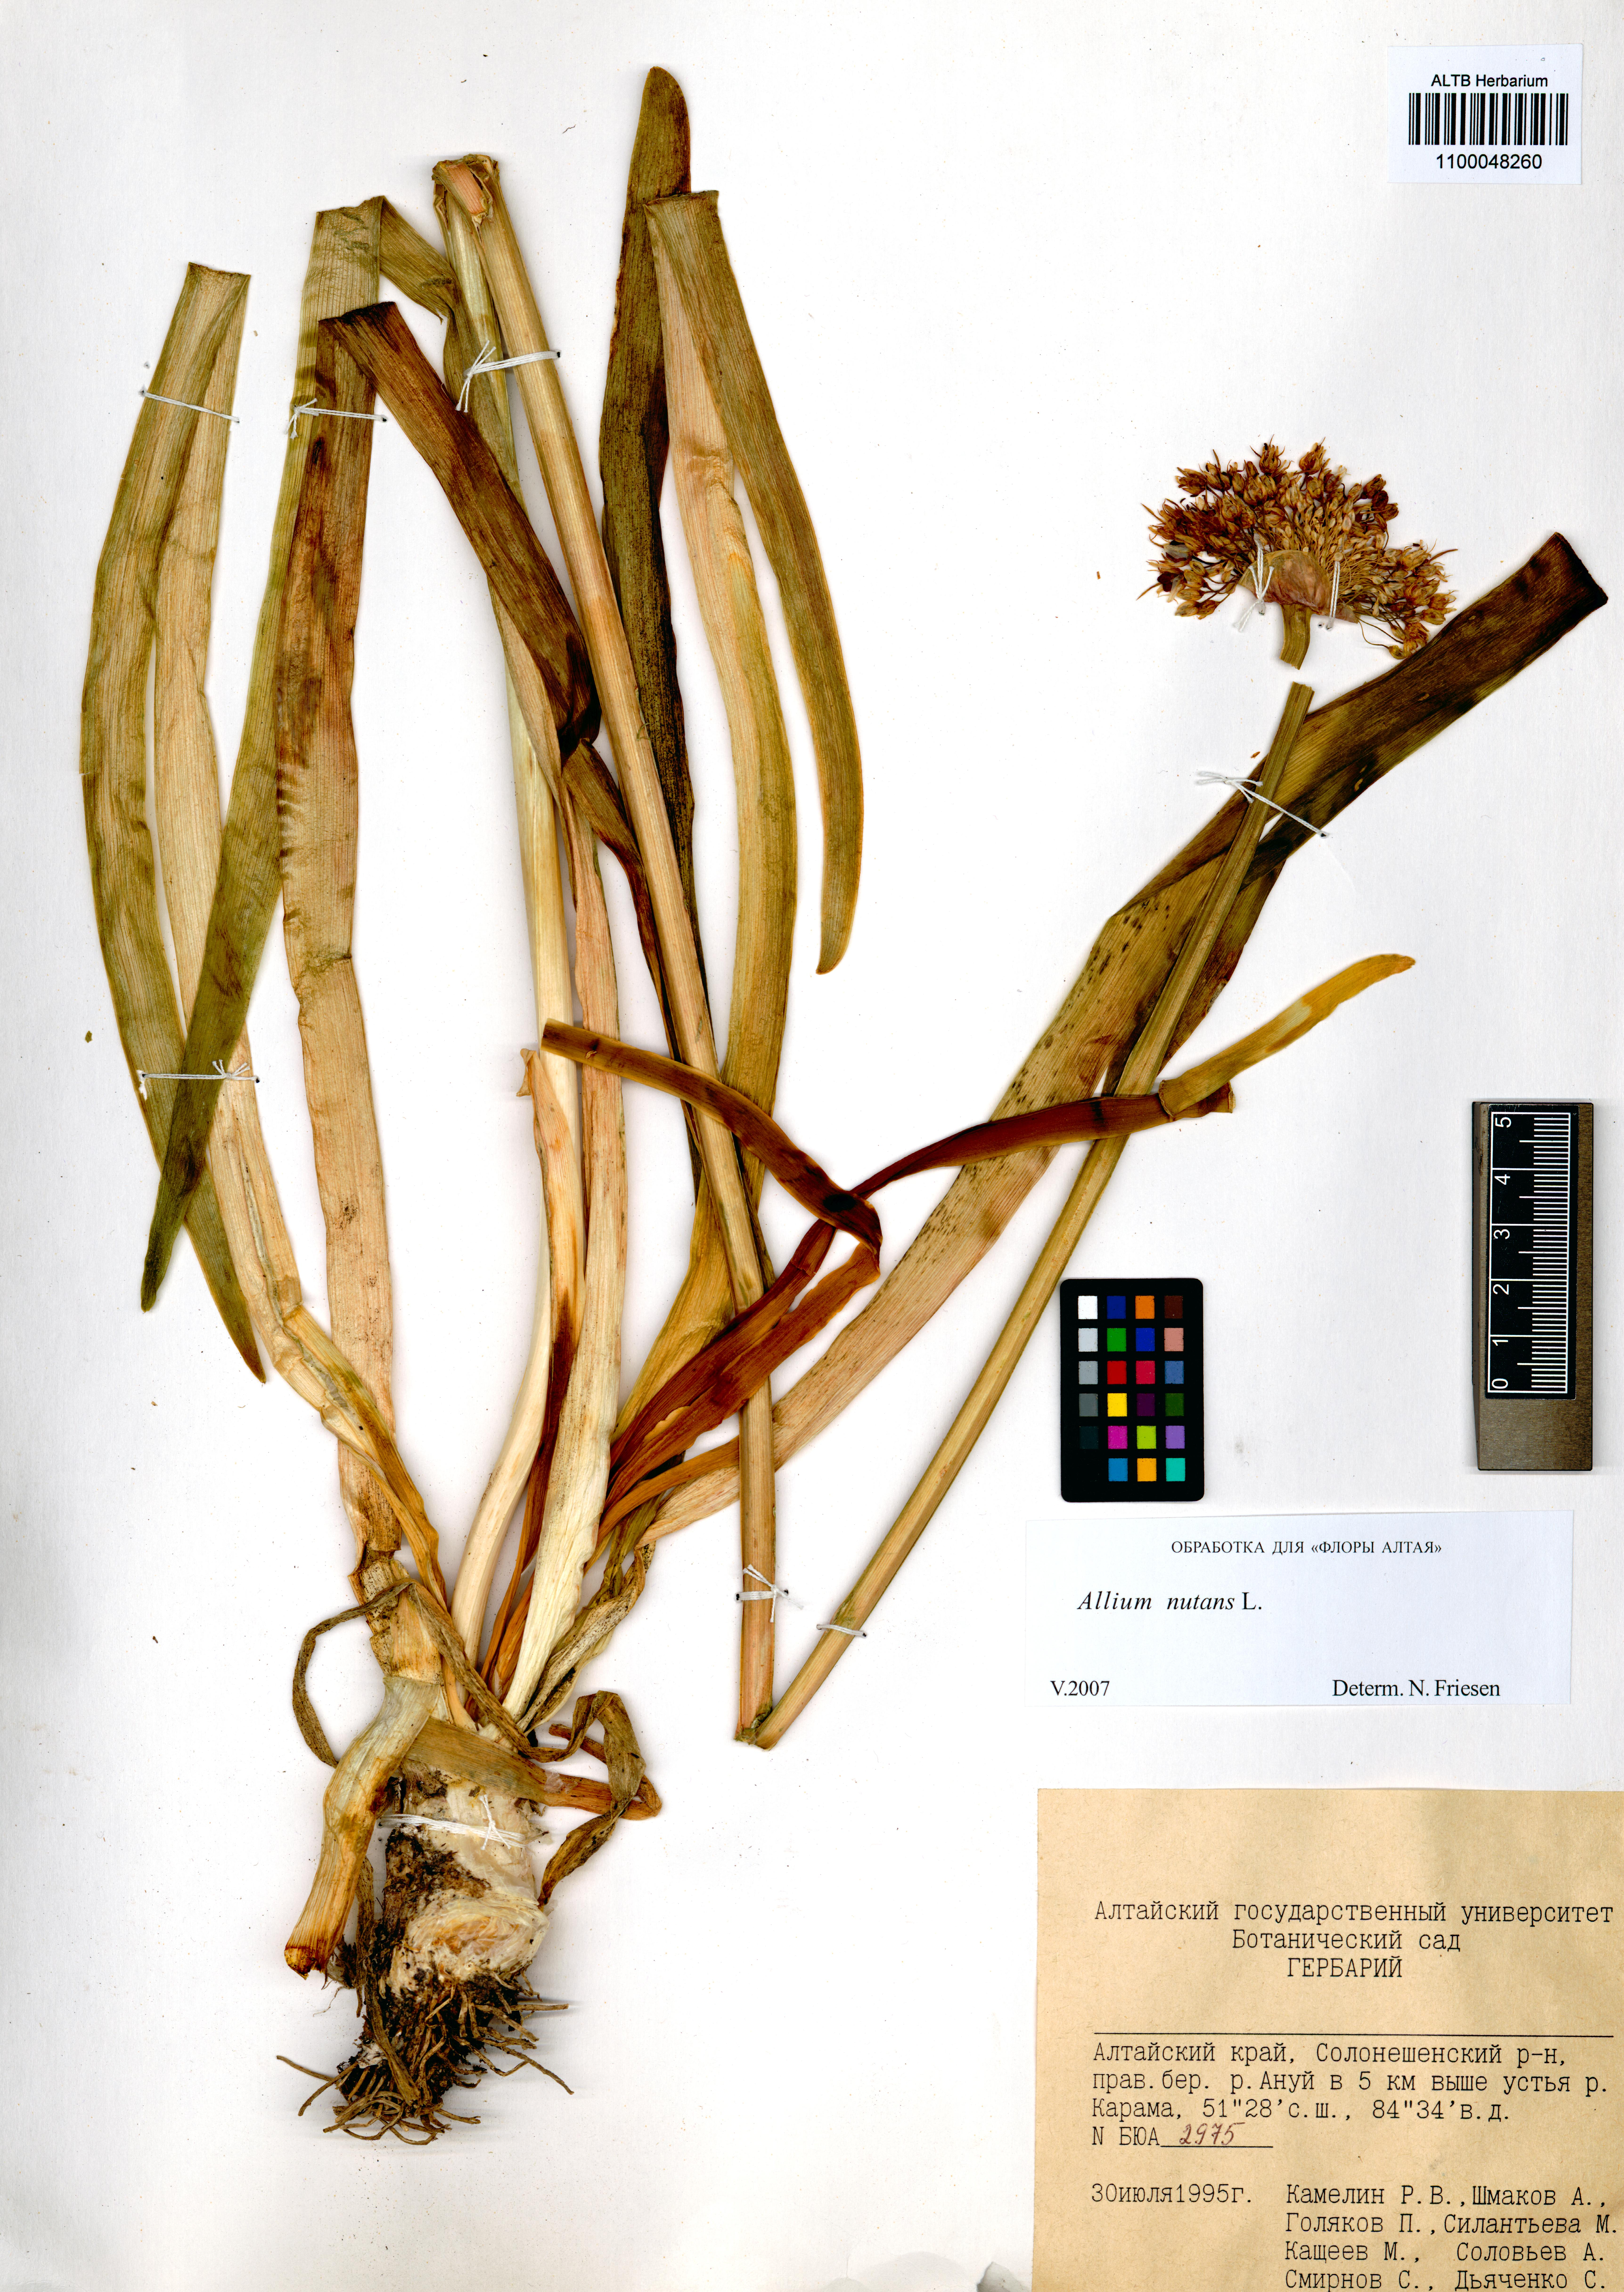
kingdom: Plantae
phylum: Tracheophyta
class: Liliopsida
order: Asparagales
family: Amaryllidaceae
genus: Allium
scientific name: Allium nutans
